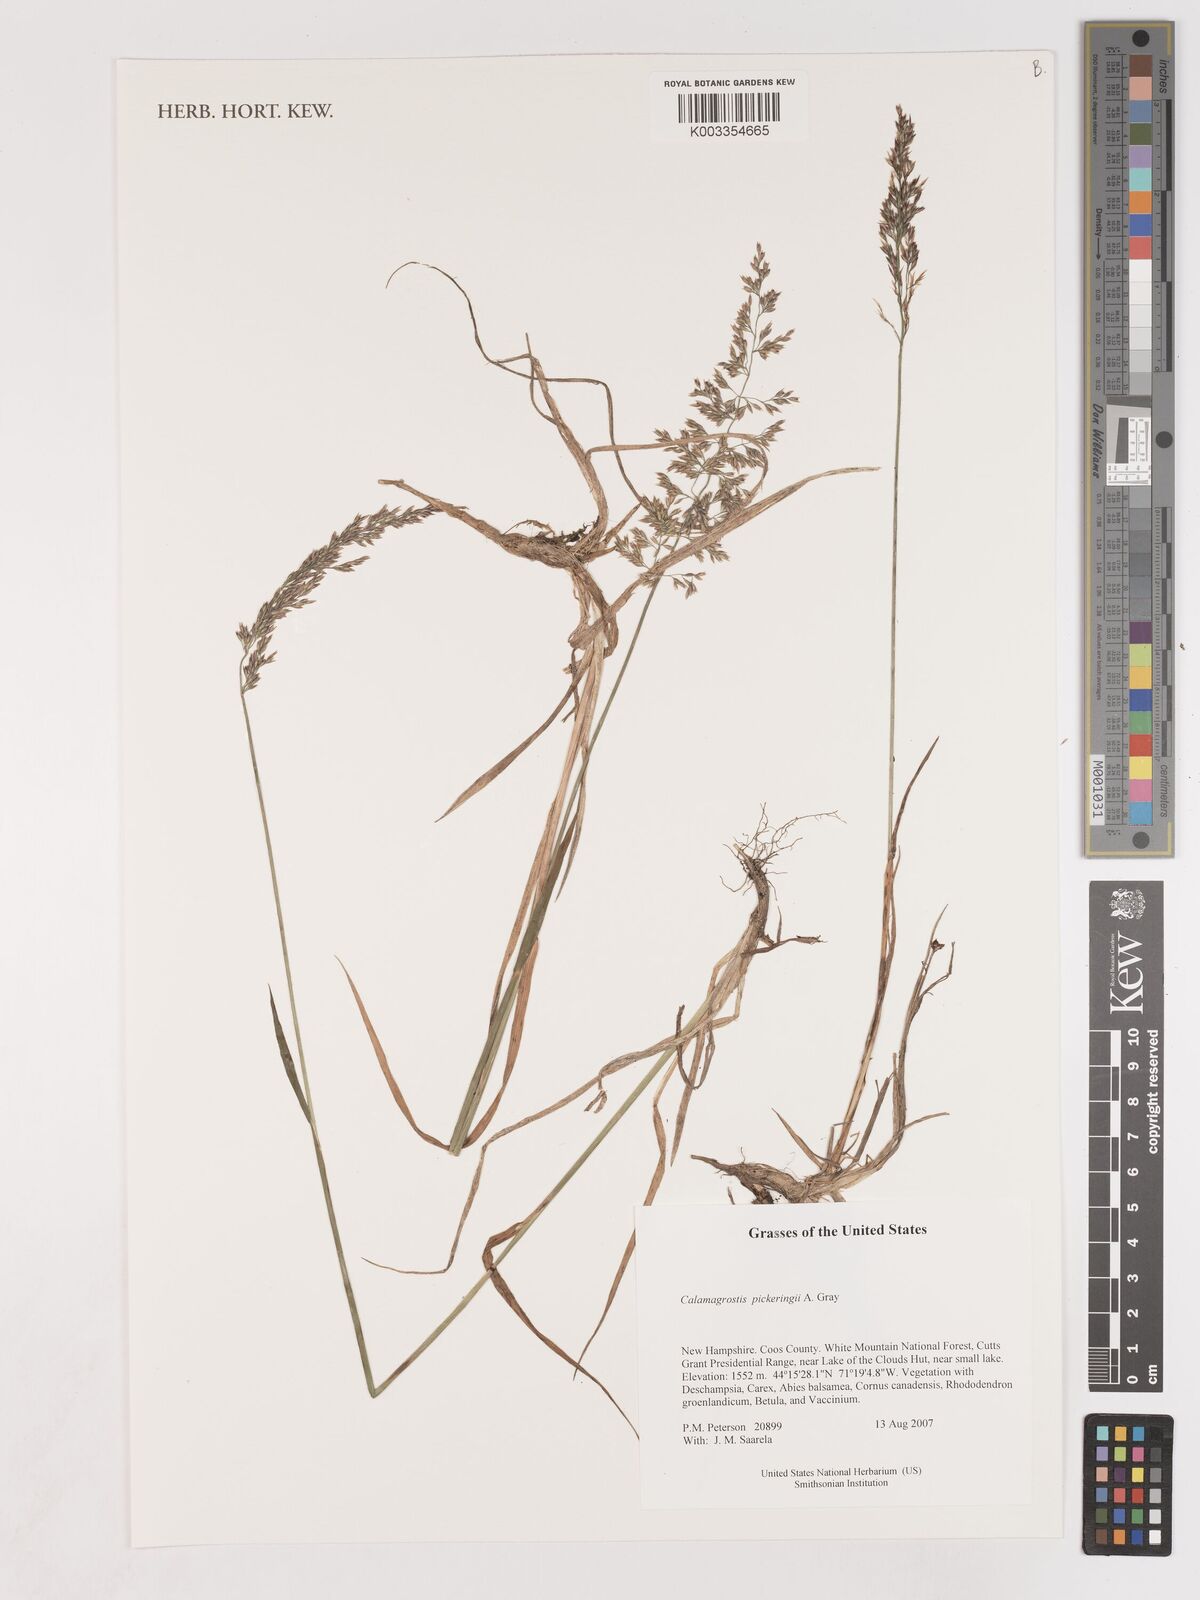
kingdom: Plantae
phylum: Tracheophyta
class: Liliopsida
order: Poales
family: Poaceae
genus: Calamagrostis
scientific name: Calamagrostis pickeringii
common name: Pickering's reed bentgrass
